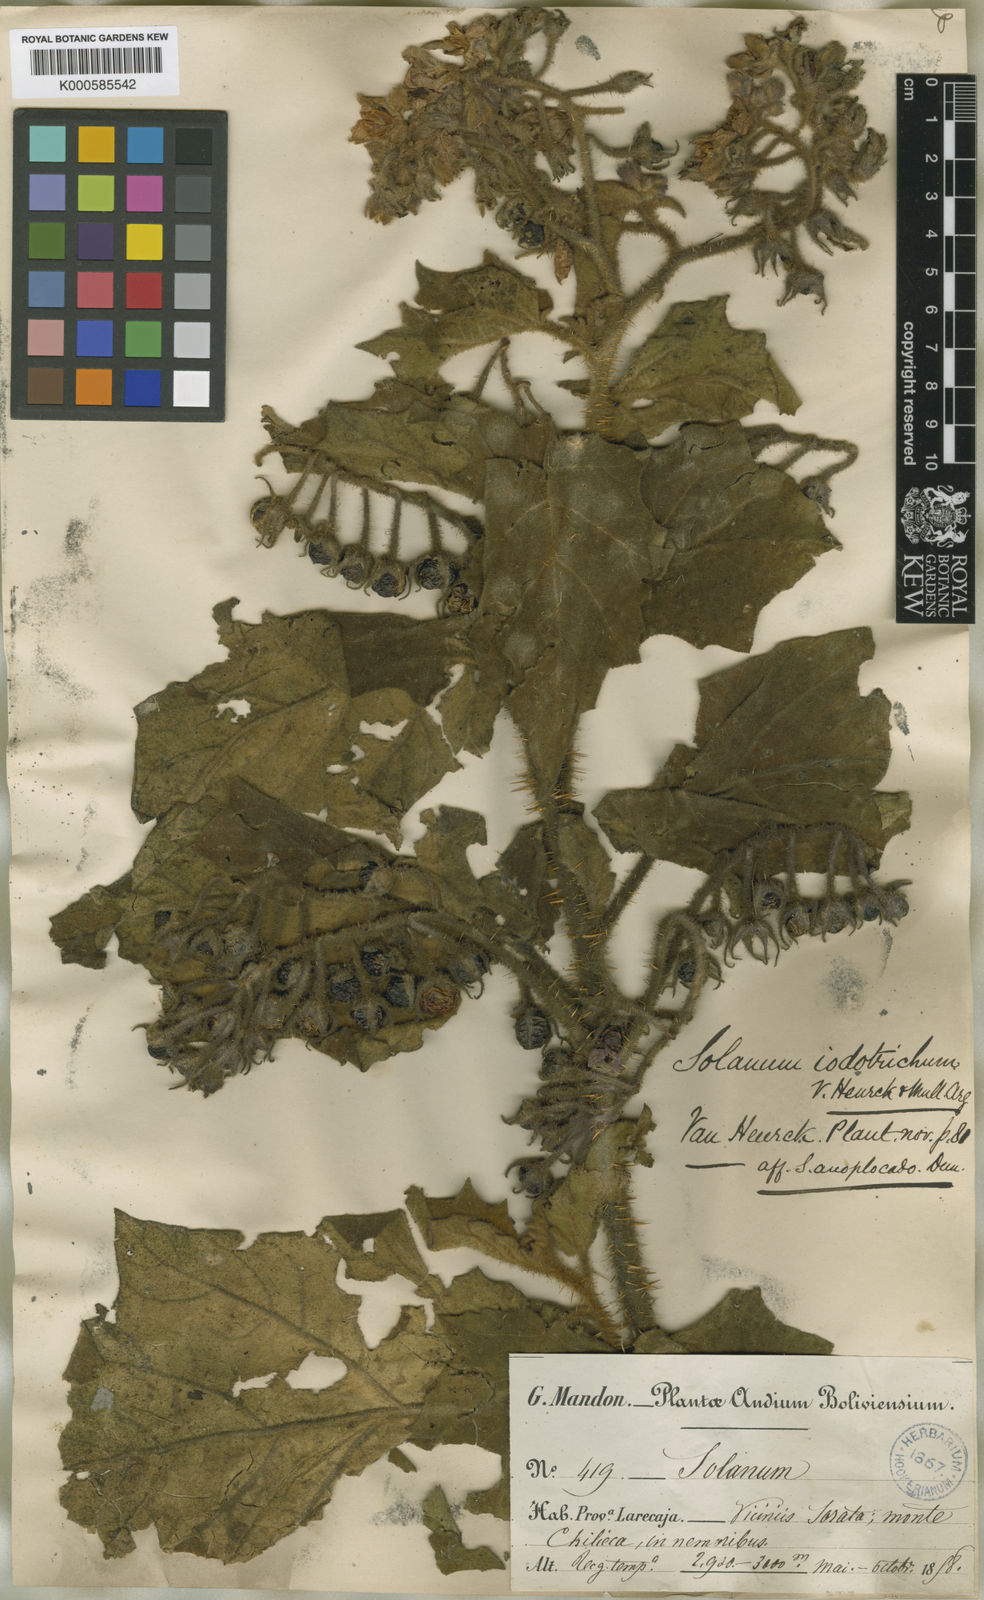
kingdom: Plantae
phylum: Tracheophyta
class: Magnoliopsida
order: Solanales
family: Solanaceae
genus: Solanum
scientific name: Solanum
